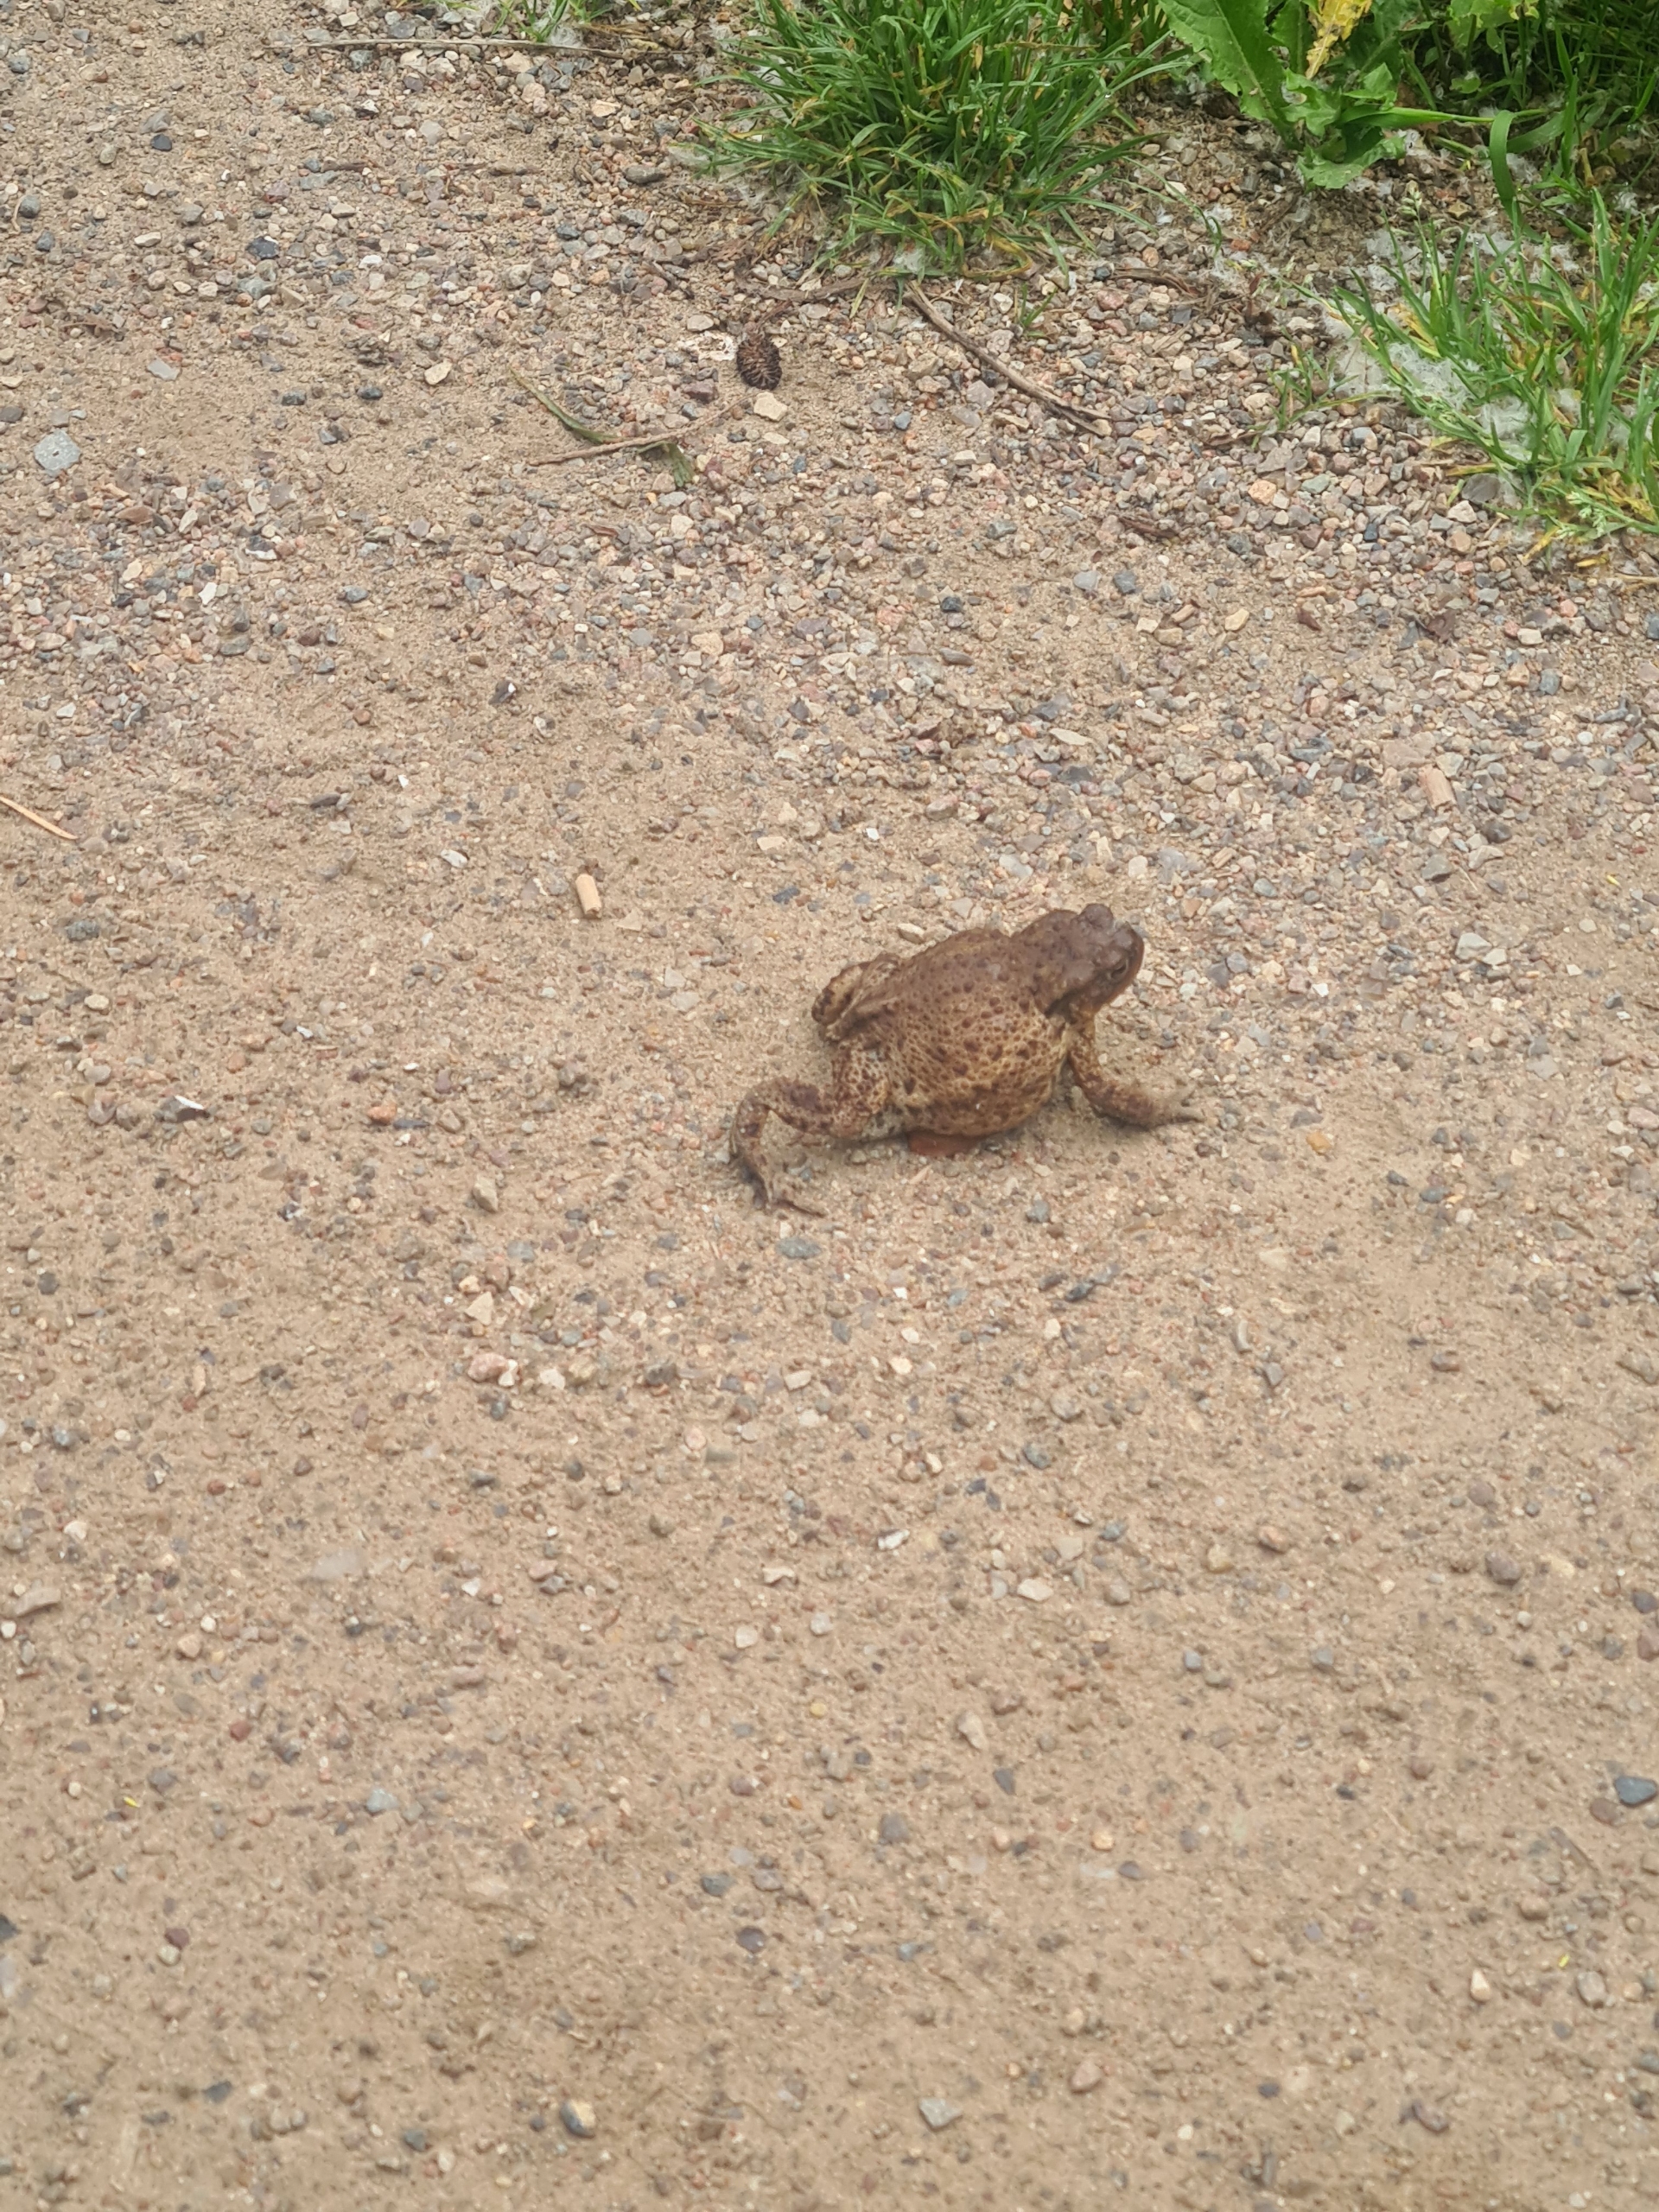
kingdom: Animalia
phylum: Chordata
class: Amphibia
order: Anura
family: Bufonidae
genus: Bufo
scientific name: Bufo bufo
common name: Skrubtudse
